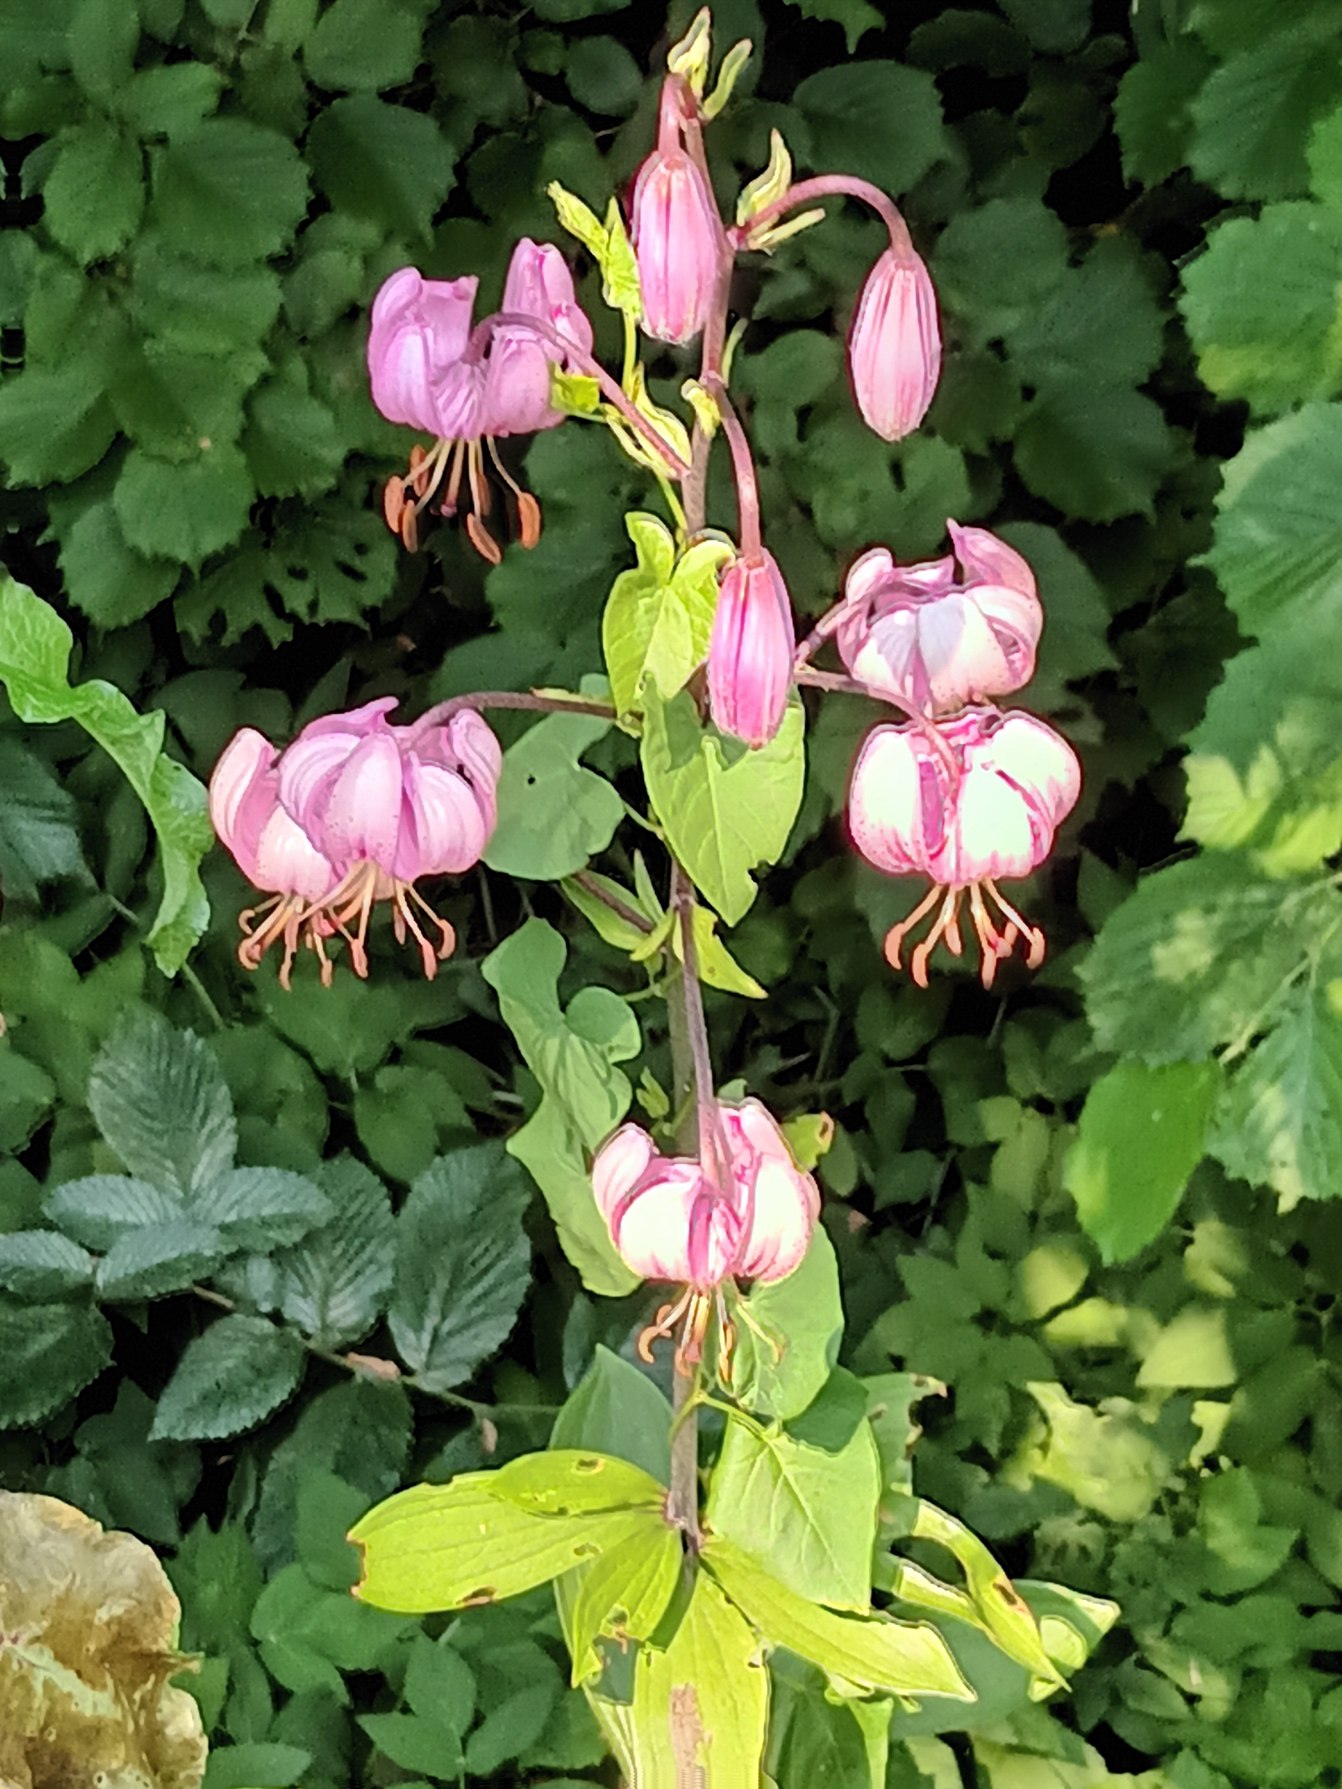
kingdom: Plantae
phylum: Tracheophyta
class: Liliopsida
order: Liliales
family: Liliaceae
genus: Lilium
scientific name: Lilium martagon
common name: Krans-lilje
